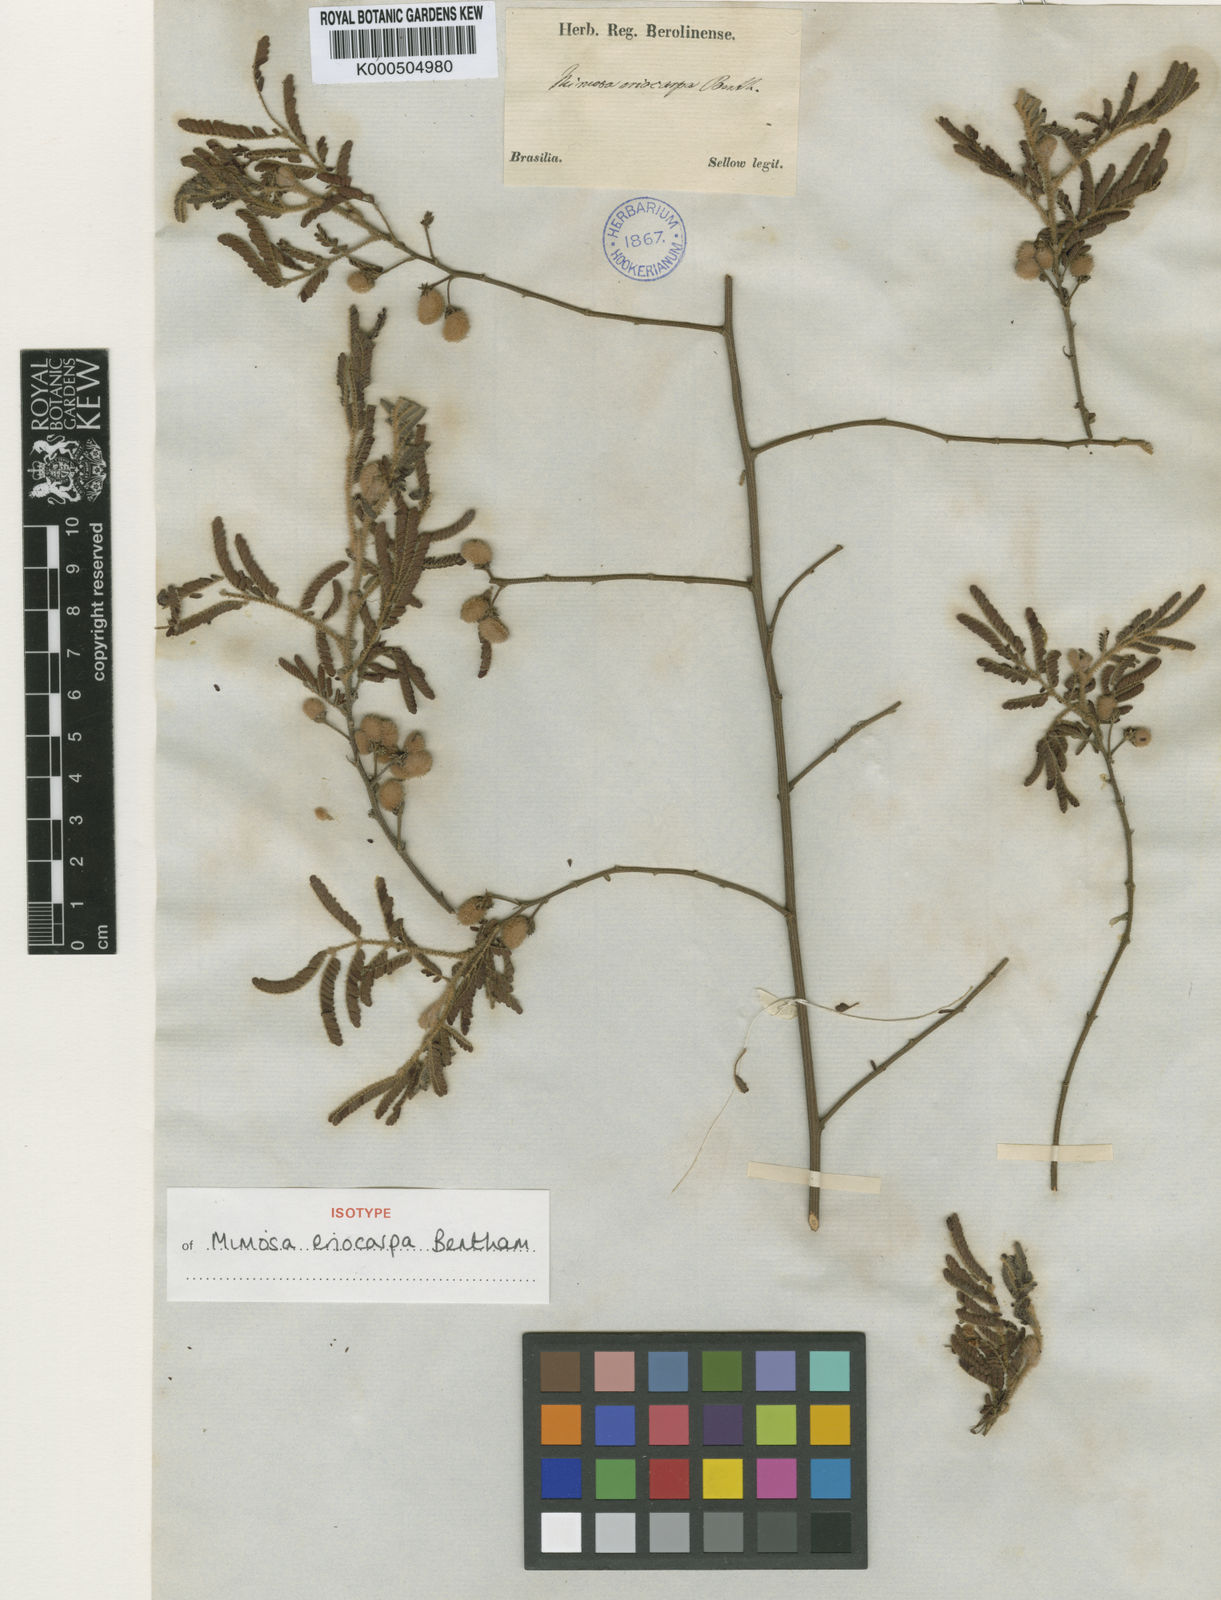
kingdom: Plantae
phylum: Tracheophyta
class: Magnoliopsida
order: Fabales
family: Fabaceae
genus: Mimosa
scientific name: Mimosa eriocarpa
